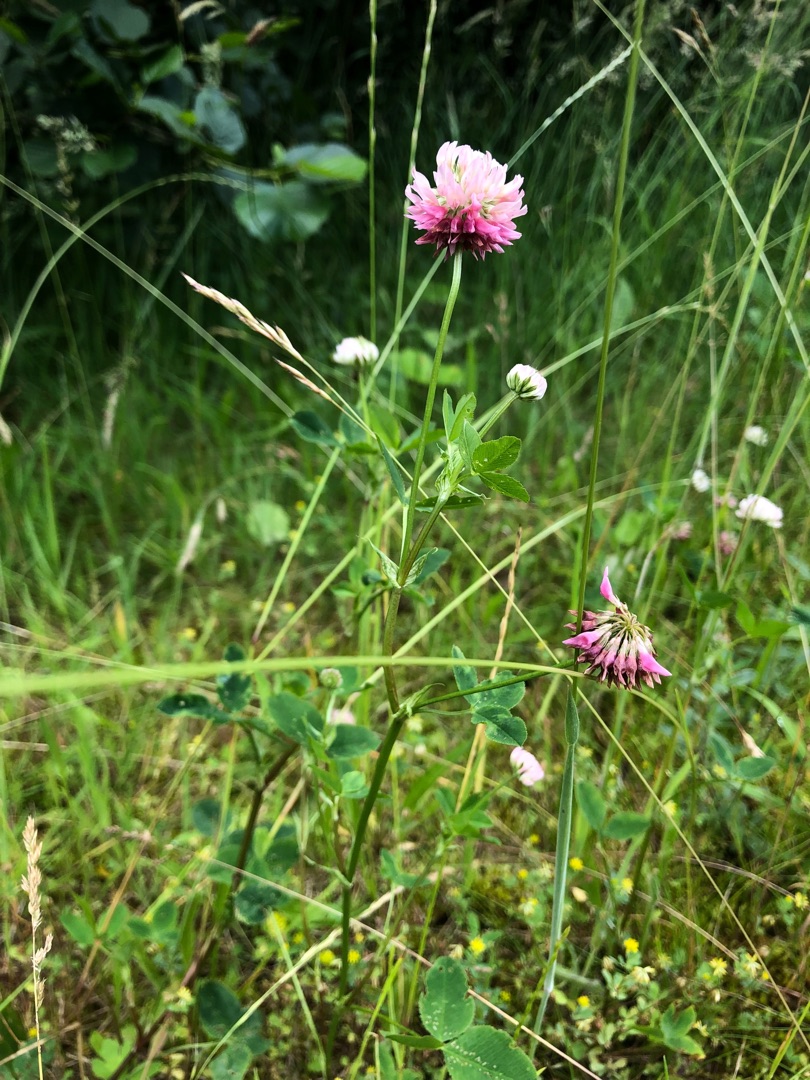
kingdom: Plantae
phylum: Tracheophyta
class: Magnoliopsida
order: Fabales
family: Fabaceae
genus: Trifolium
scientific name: Trifolium hybridum
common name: Alsike-kløver
